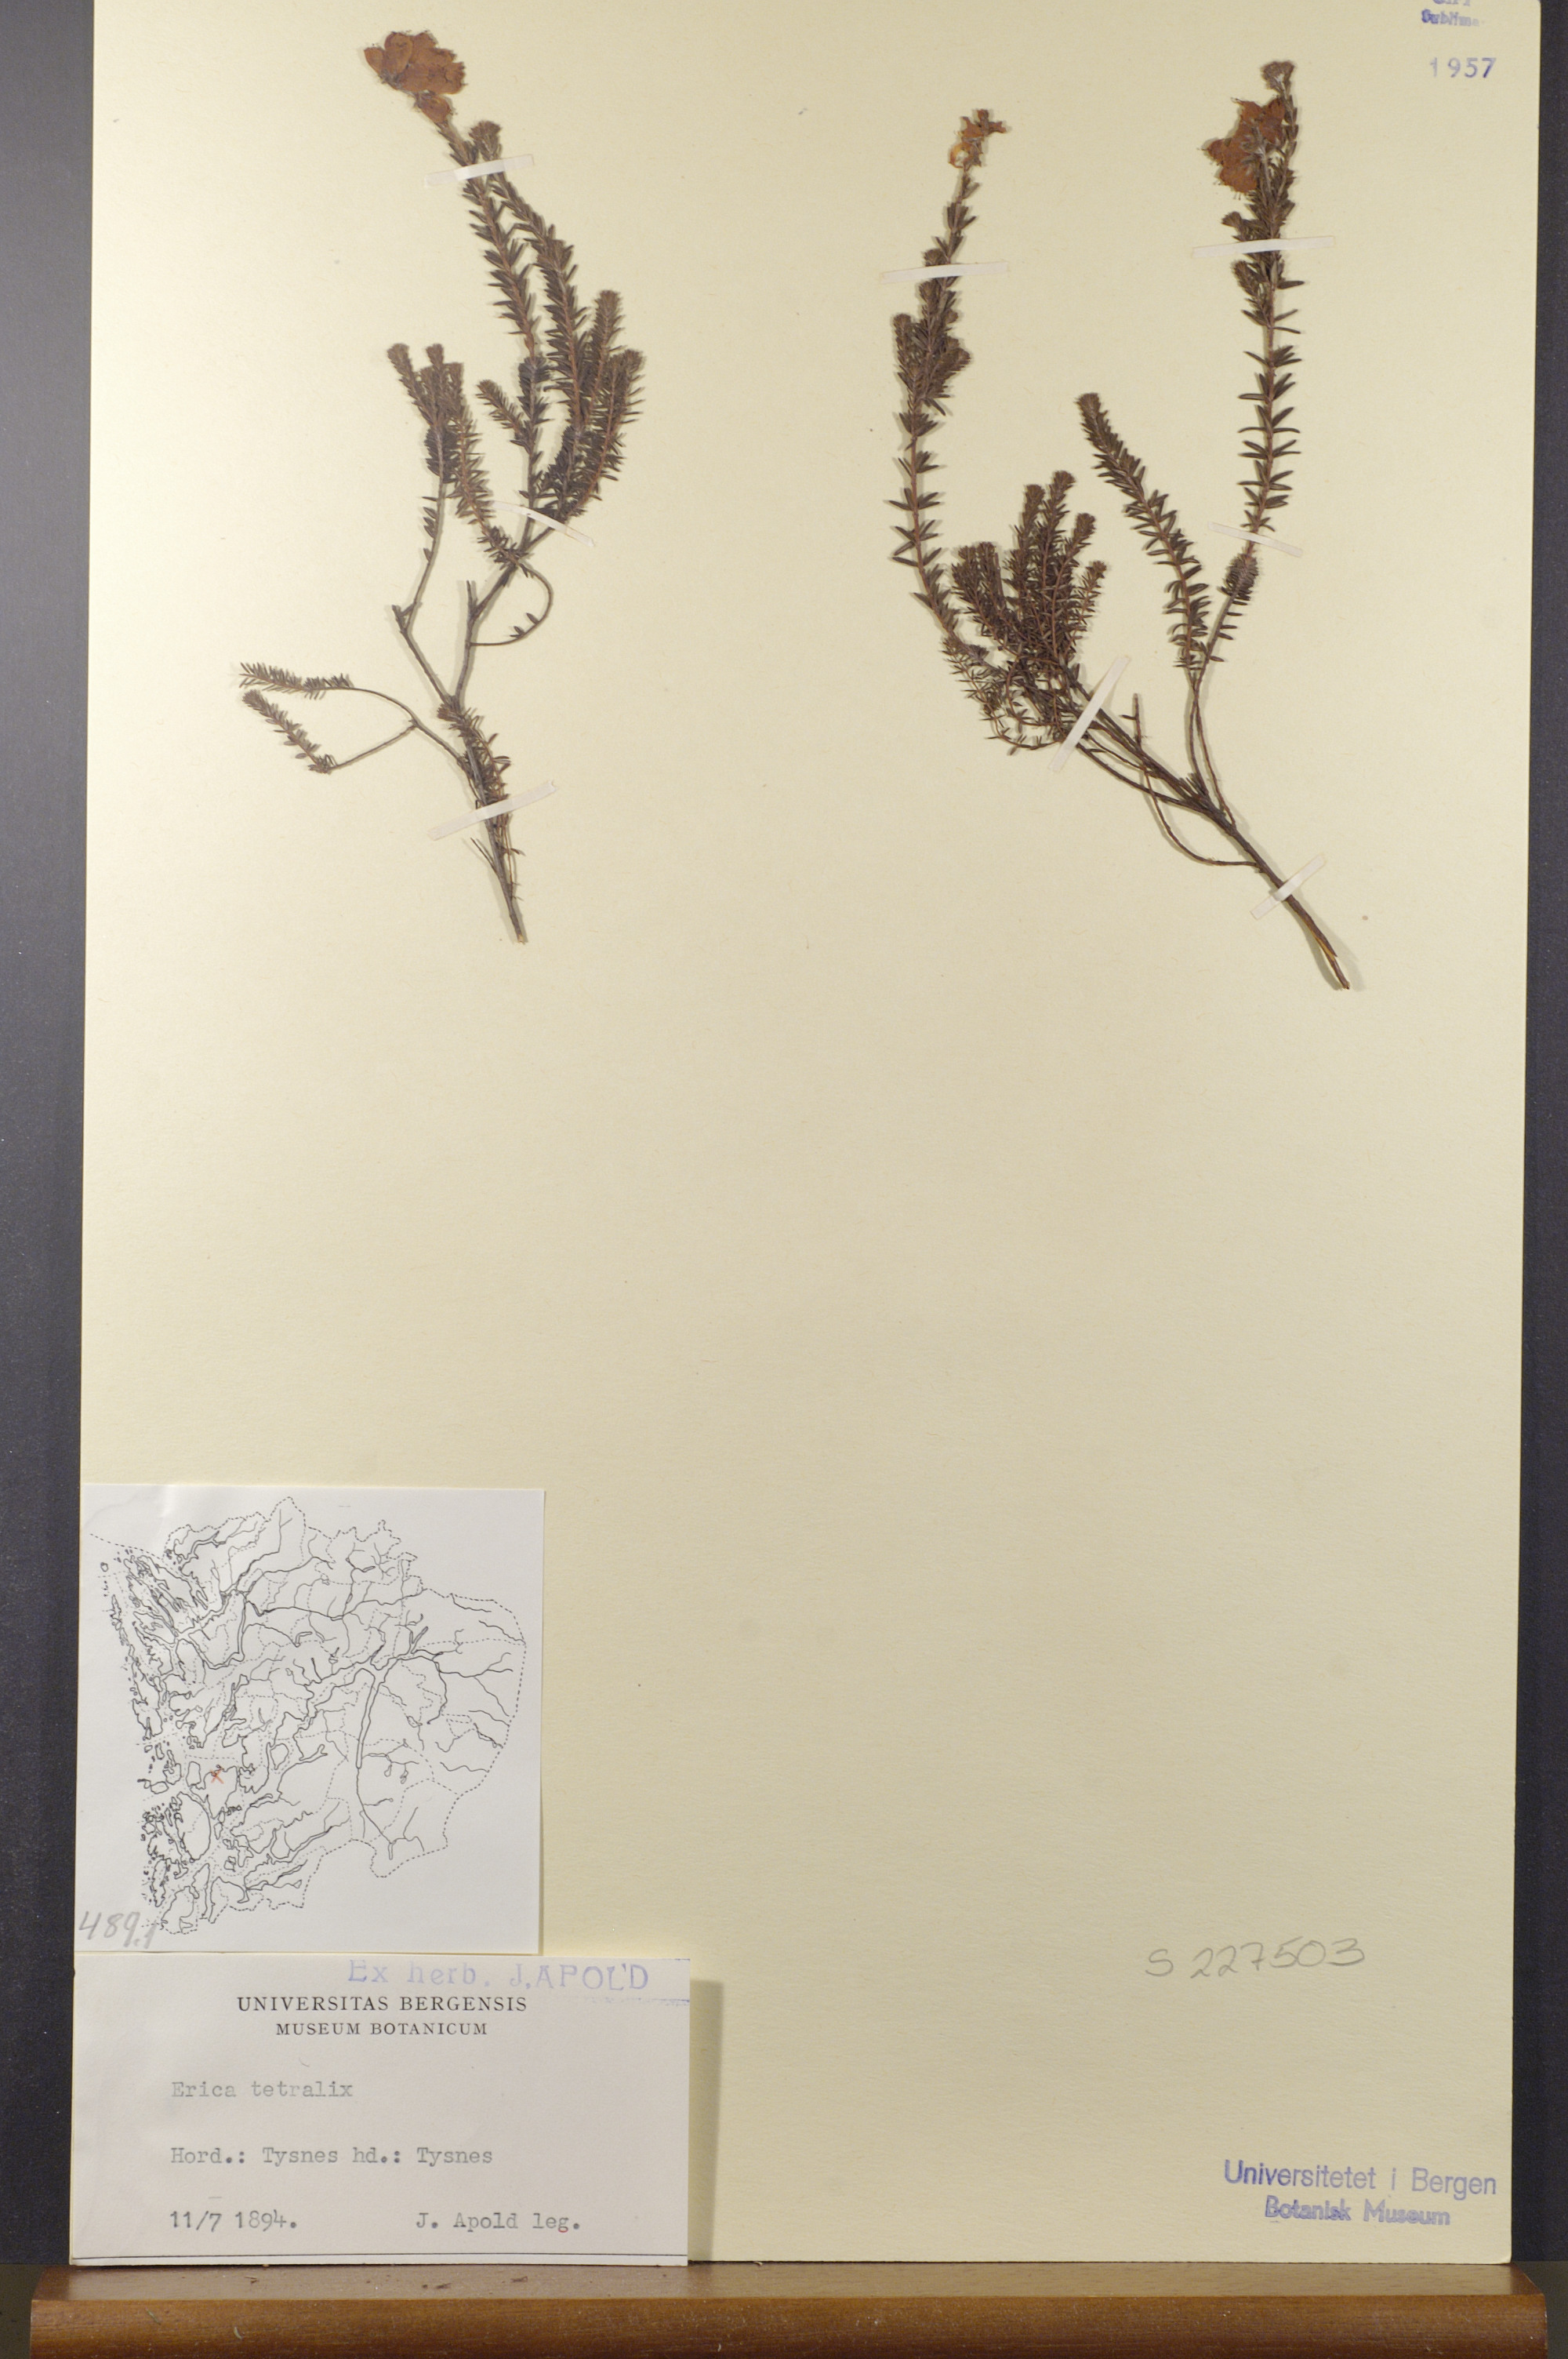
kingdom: Plantae
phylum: Tracheophyta
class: Magnoliopsida
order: Ericales
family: Ericaceae
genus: Erica
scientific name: Erica tetralix
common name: Cross-leaved heath
